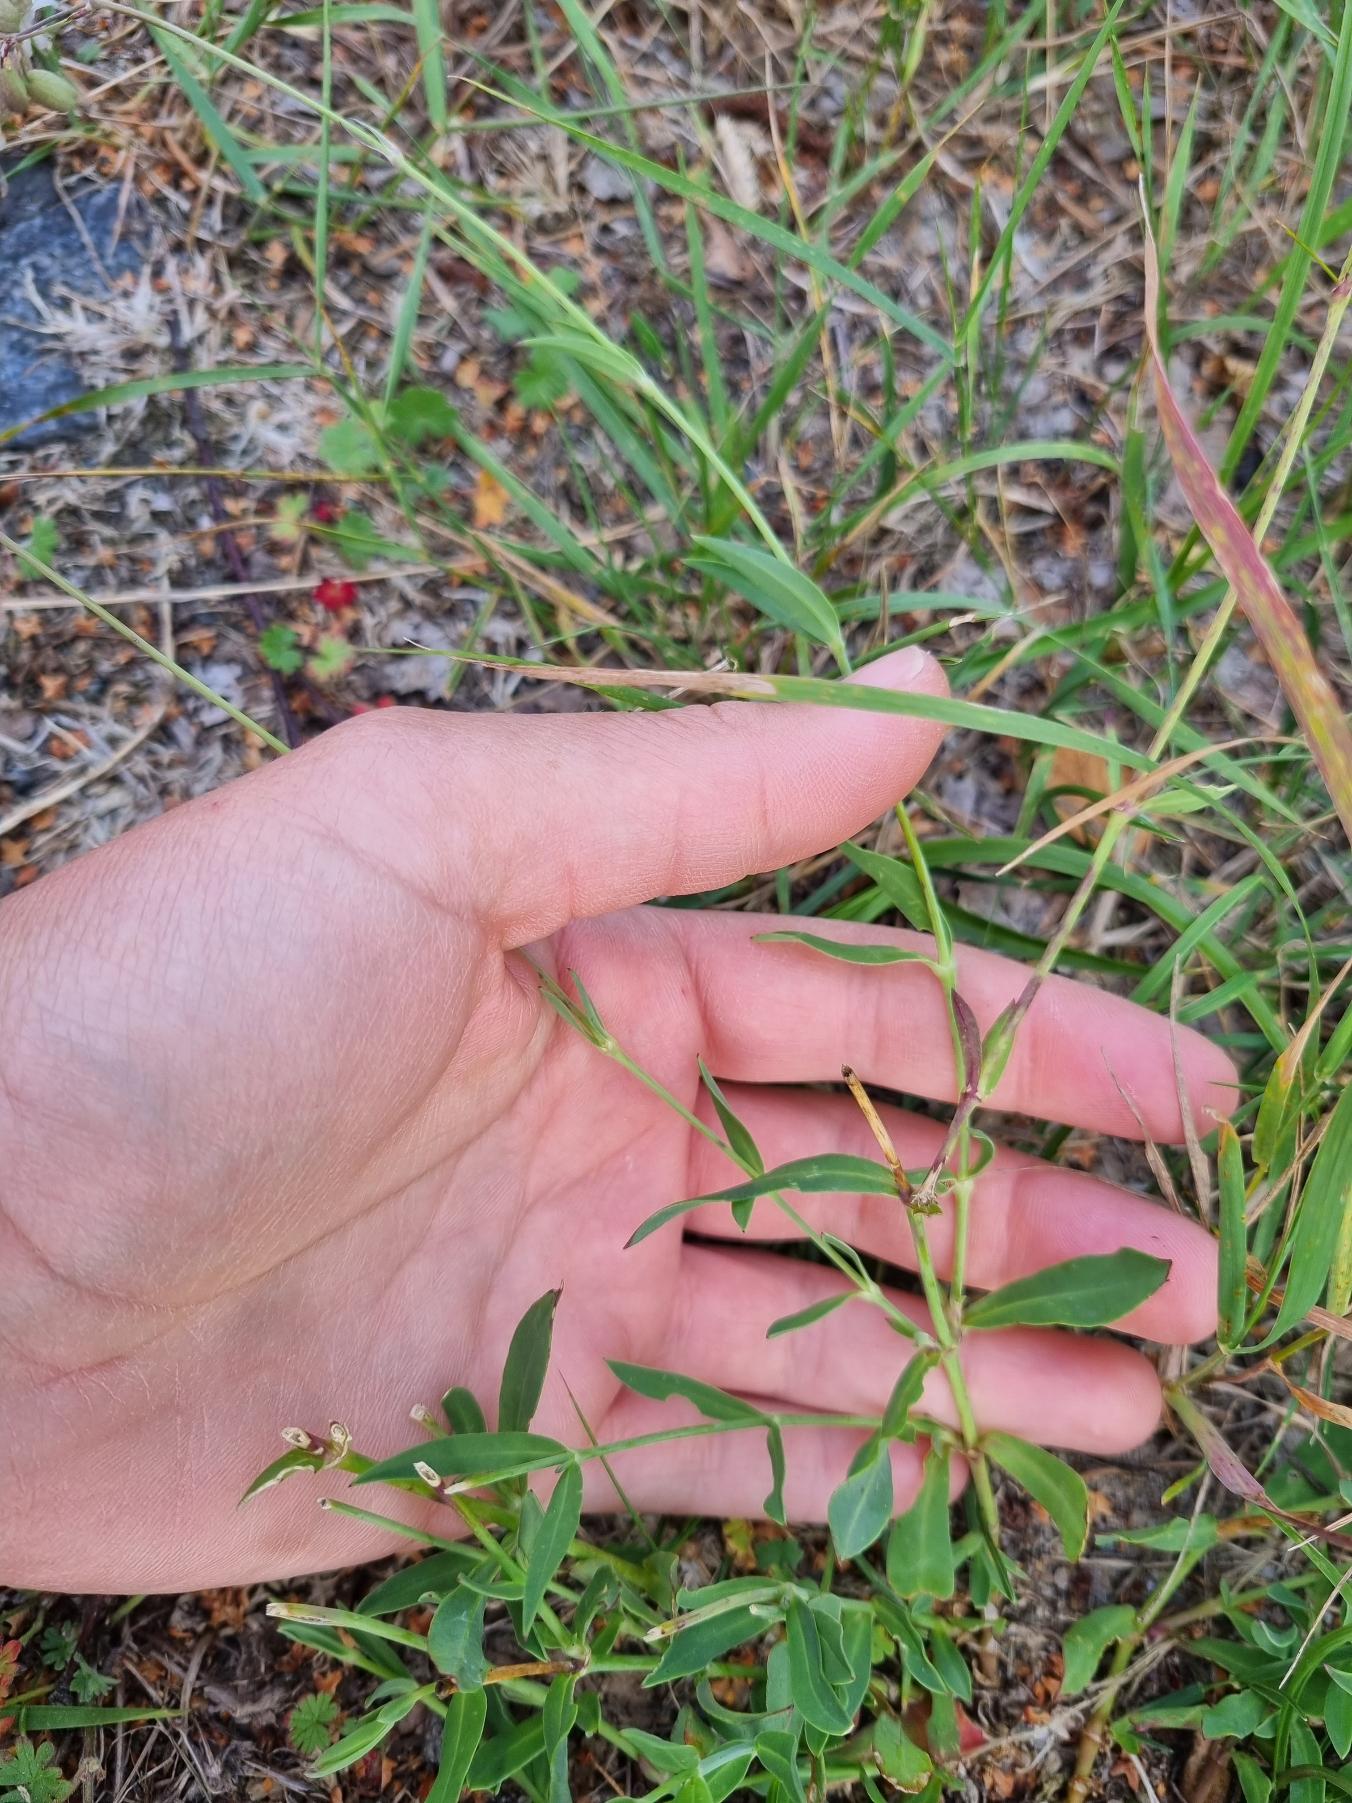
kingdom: Plantae
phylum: Tracheophyta
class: Magnoliopsida
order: Caryophyllales
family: Caryophyllaceae
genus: Silene
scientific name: Silene vulgaris
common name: Blæresmælde
